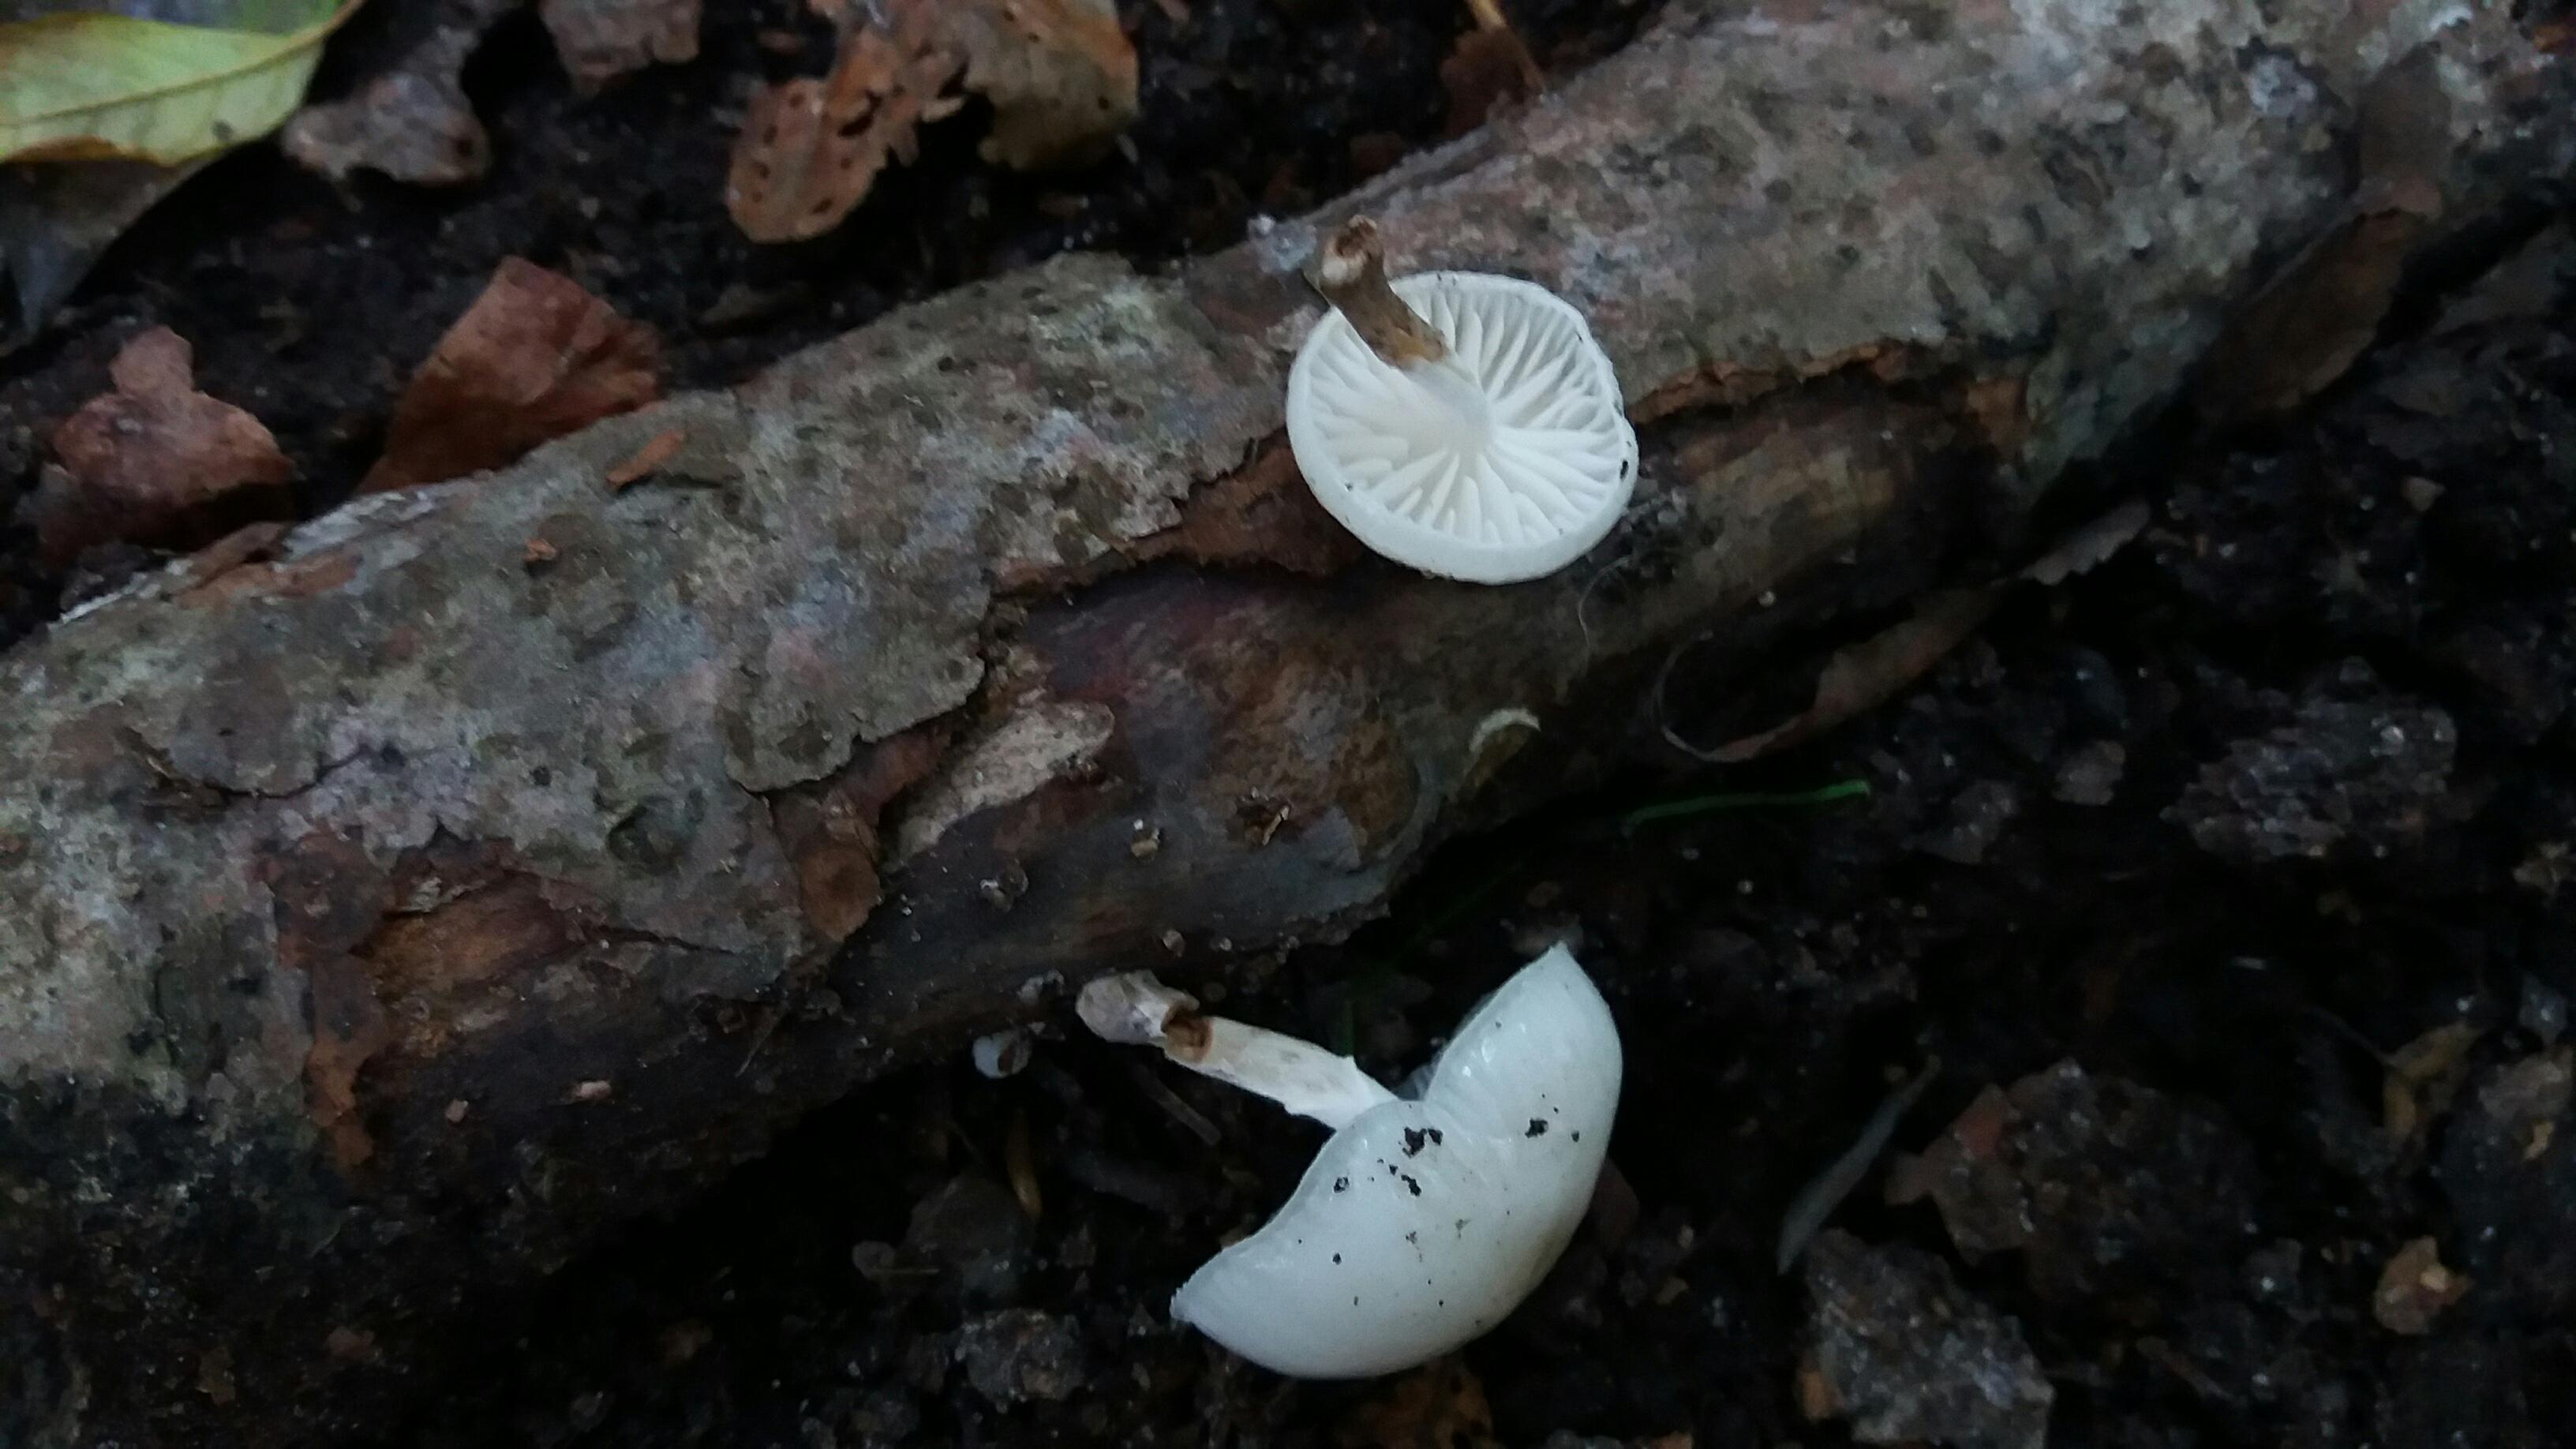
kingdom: Fungi
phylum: Basidiomycota
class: Agaricomycetes
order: Agaricales
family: Physalacriaceae
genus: Mucidula
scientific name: Mucidula mucida
